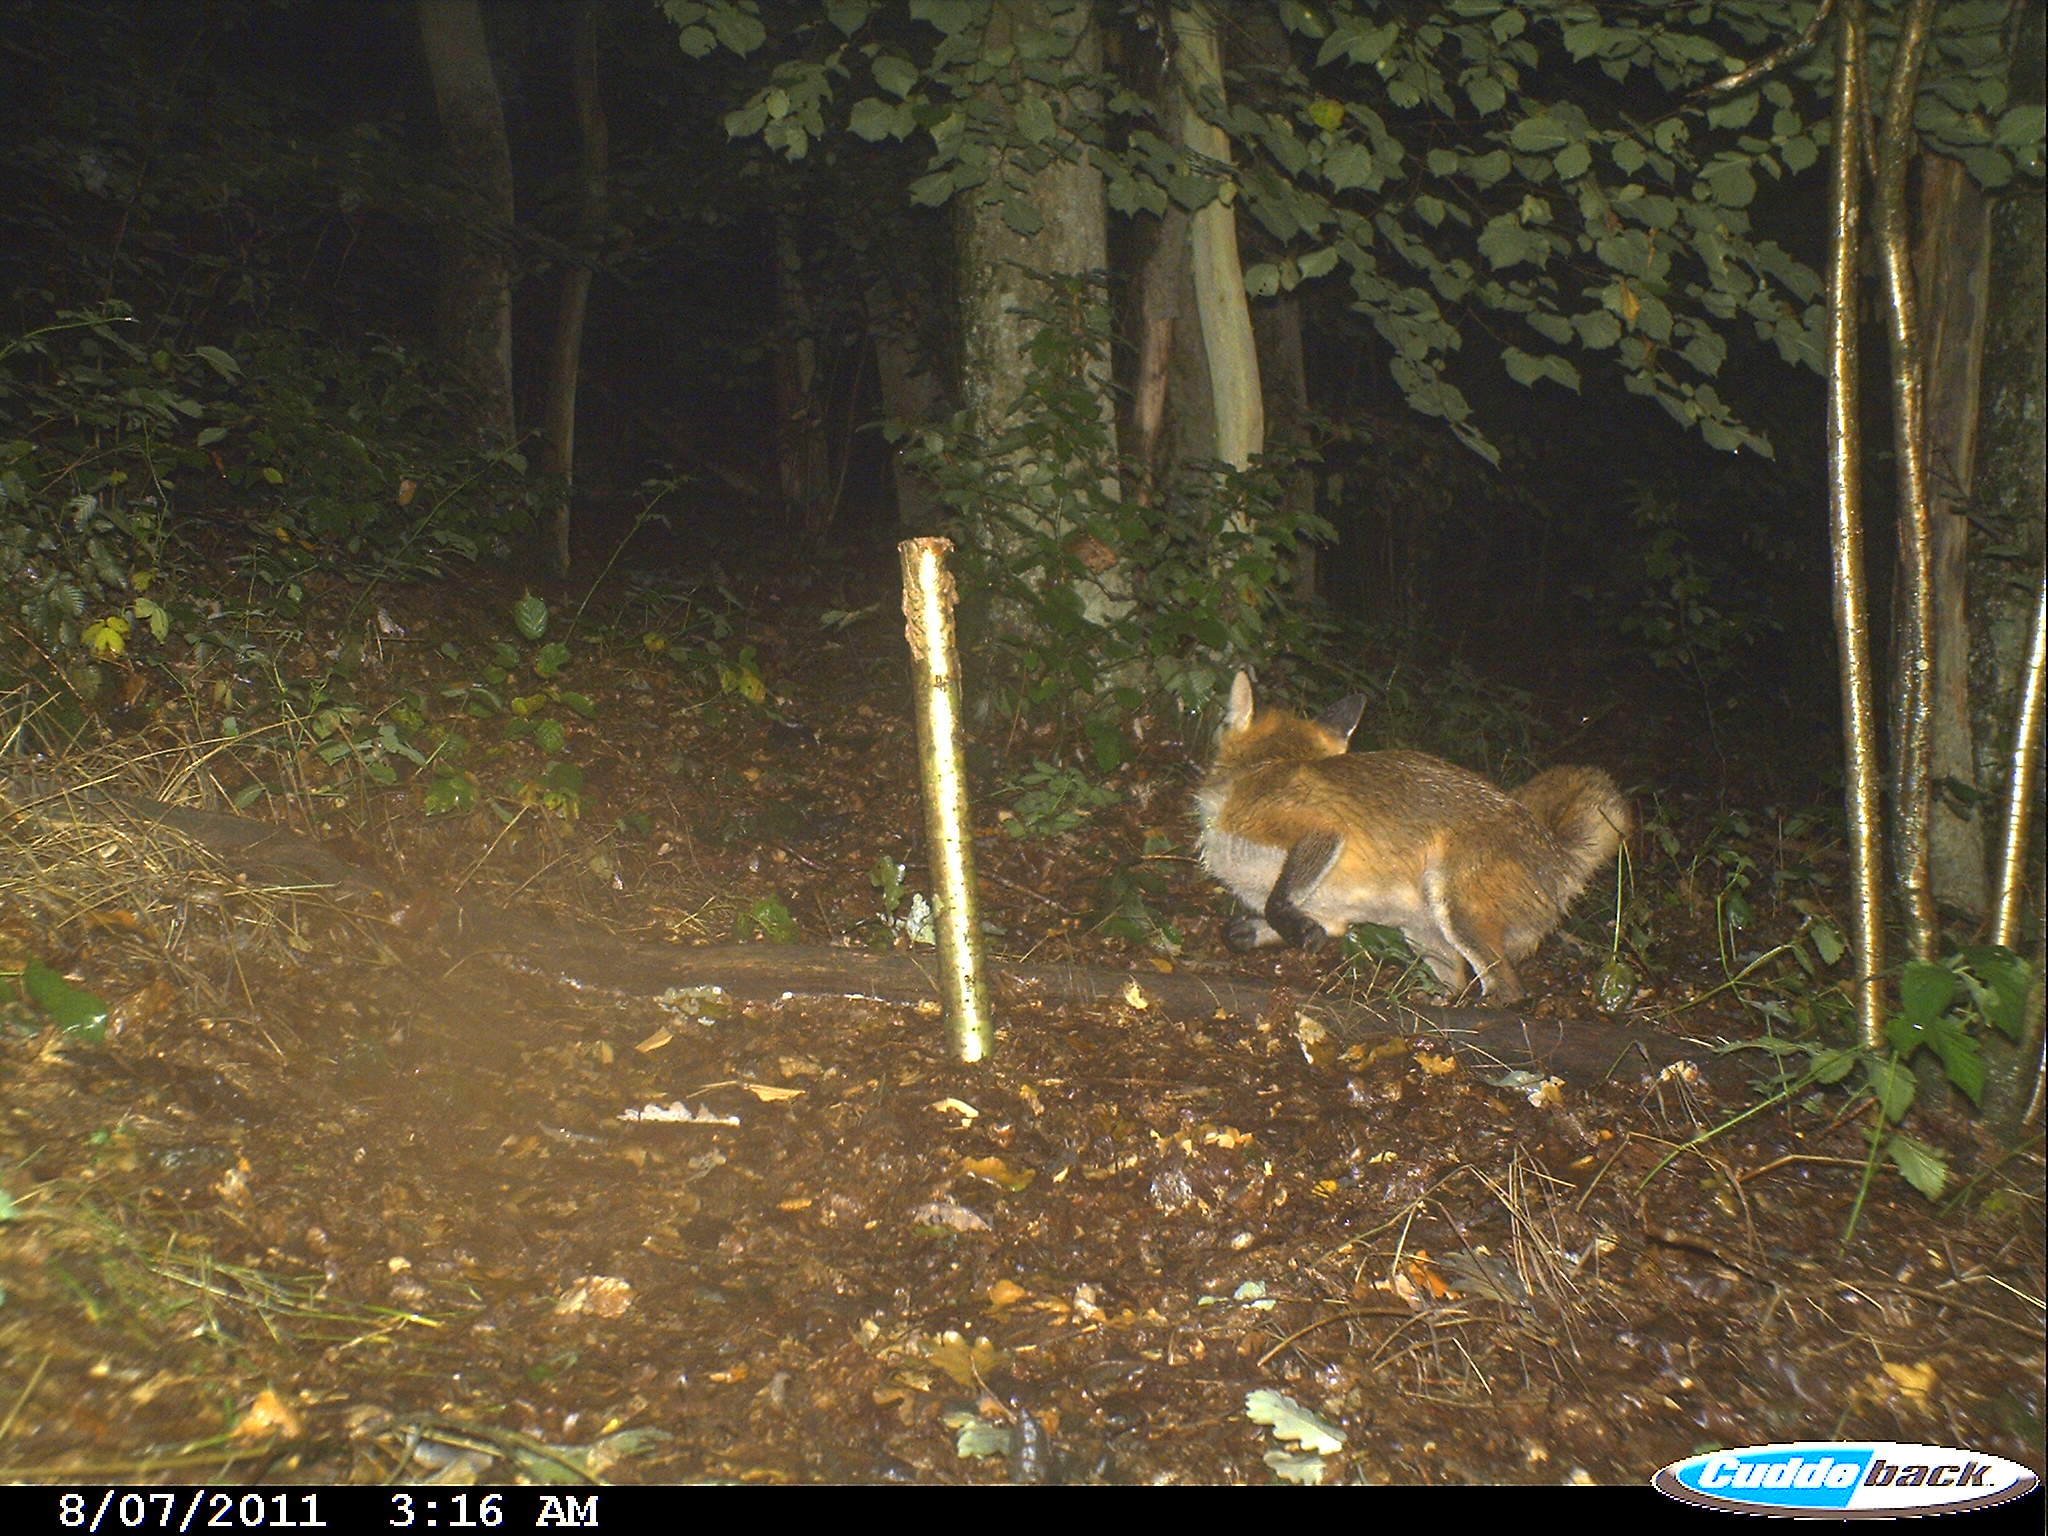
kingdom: Animalia
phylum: Chordata
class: Mammalia
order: Carnivora
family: Canidae
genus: Vulpes
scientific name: Vulpes vulpes
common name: Red fox
